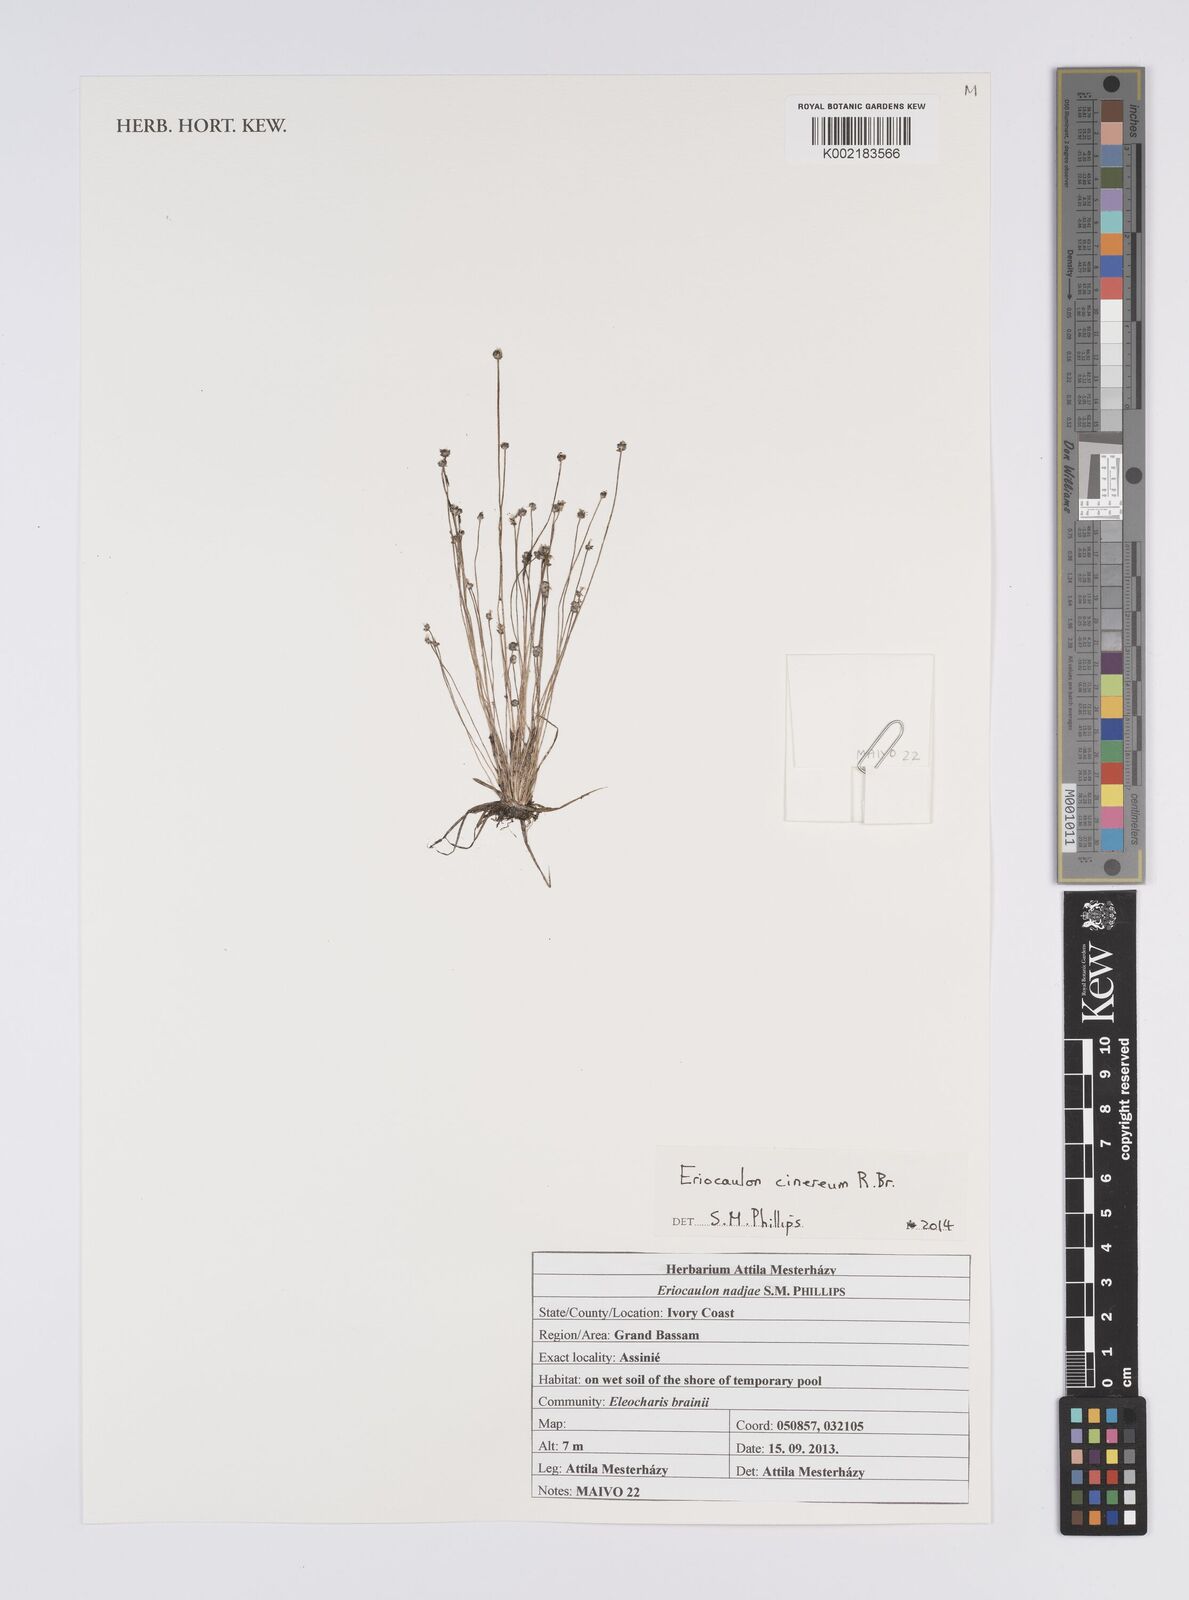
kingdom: Plantae
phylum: Tracheophyta
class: Liliopsida
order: Poales
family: Eriocaulaceae
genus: Eriocaulon
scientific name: Eriocaulon cinereum
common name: Ashy pipewort
